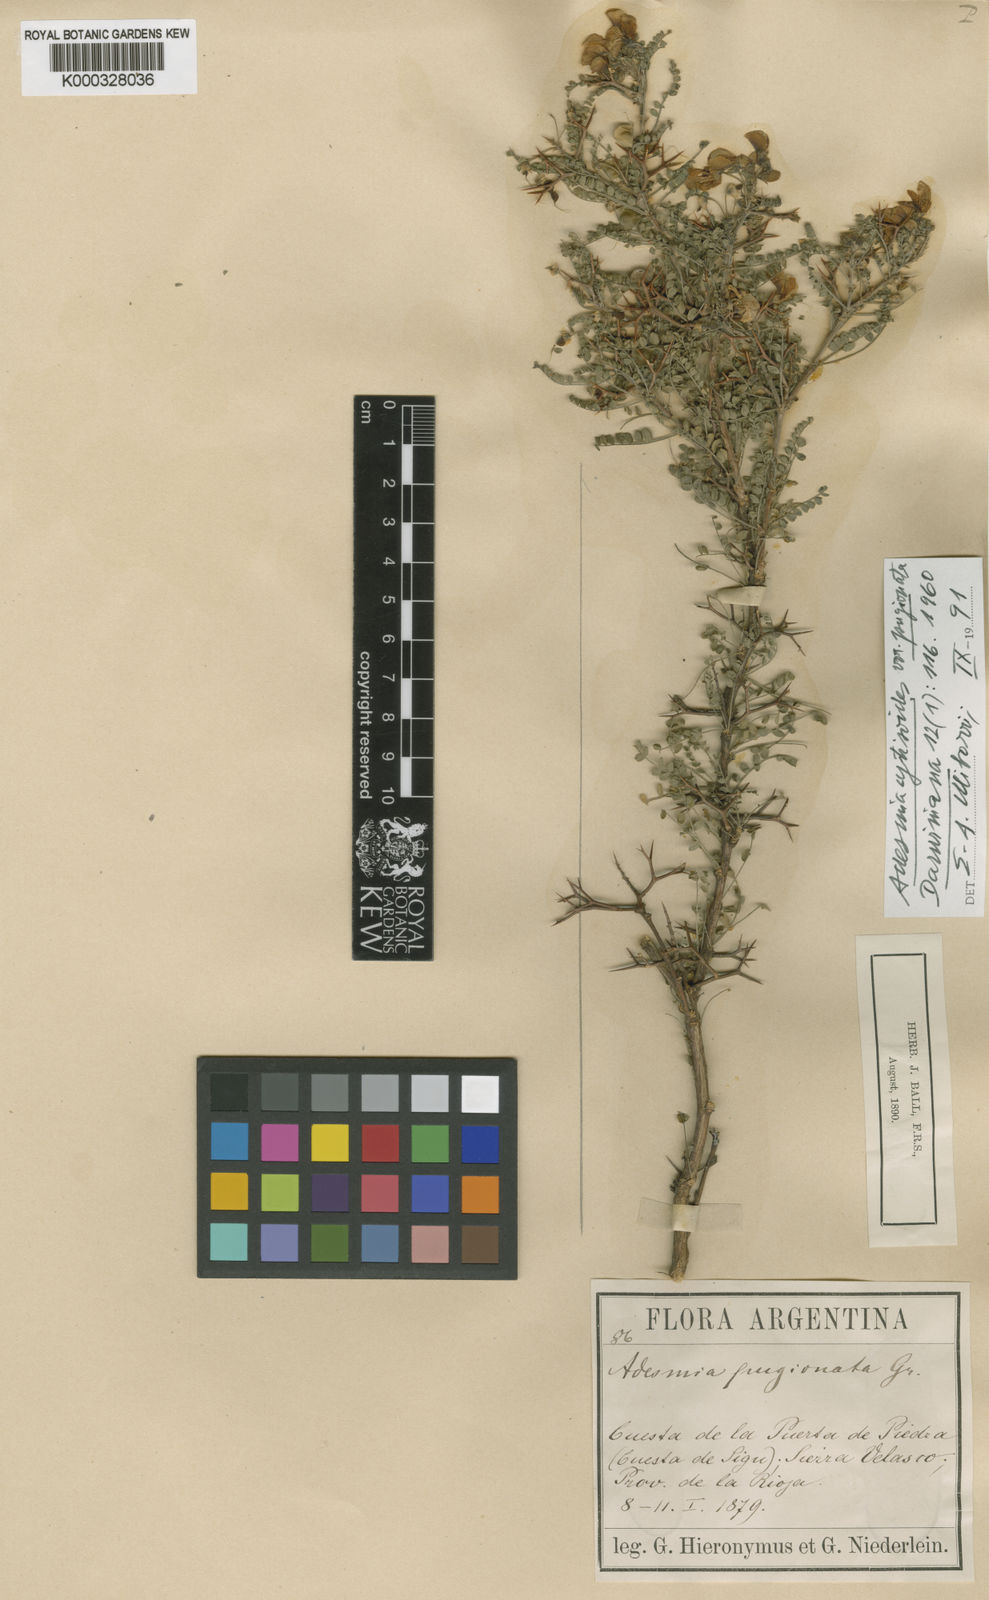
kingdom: Plantae
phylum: Tracheophyta
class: Magnoliopsida
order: Fabales
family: Fabaceae
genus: Adesmia
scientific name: Adesmia cytisoides
